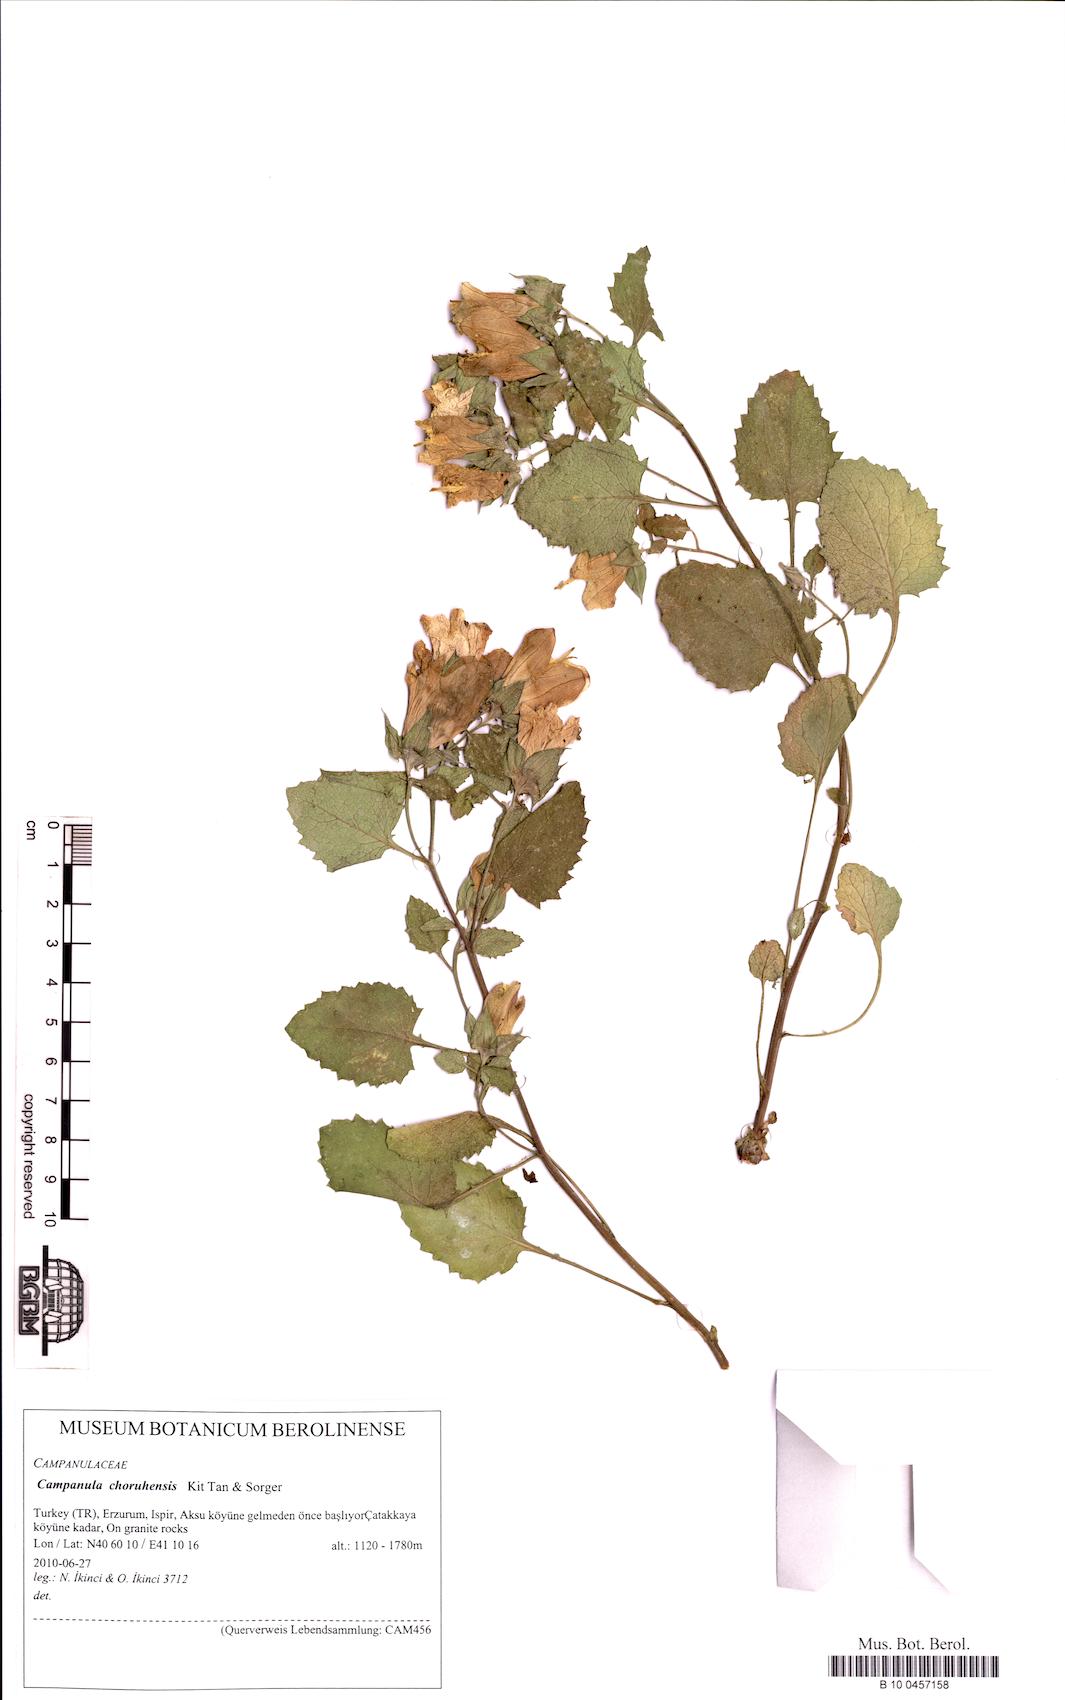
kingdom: Plantae
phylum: Tracheophyta
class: Magnoliopsida
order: Asterales
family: Campanulaceae
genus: Campanula
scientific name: Campanula choruhensis
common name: Choruhian bellflower
